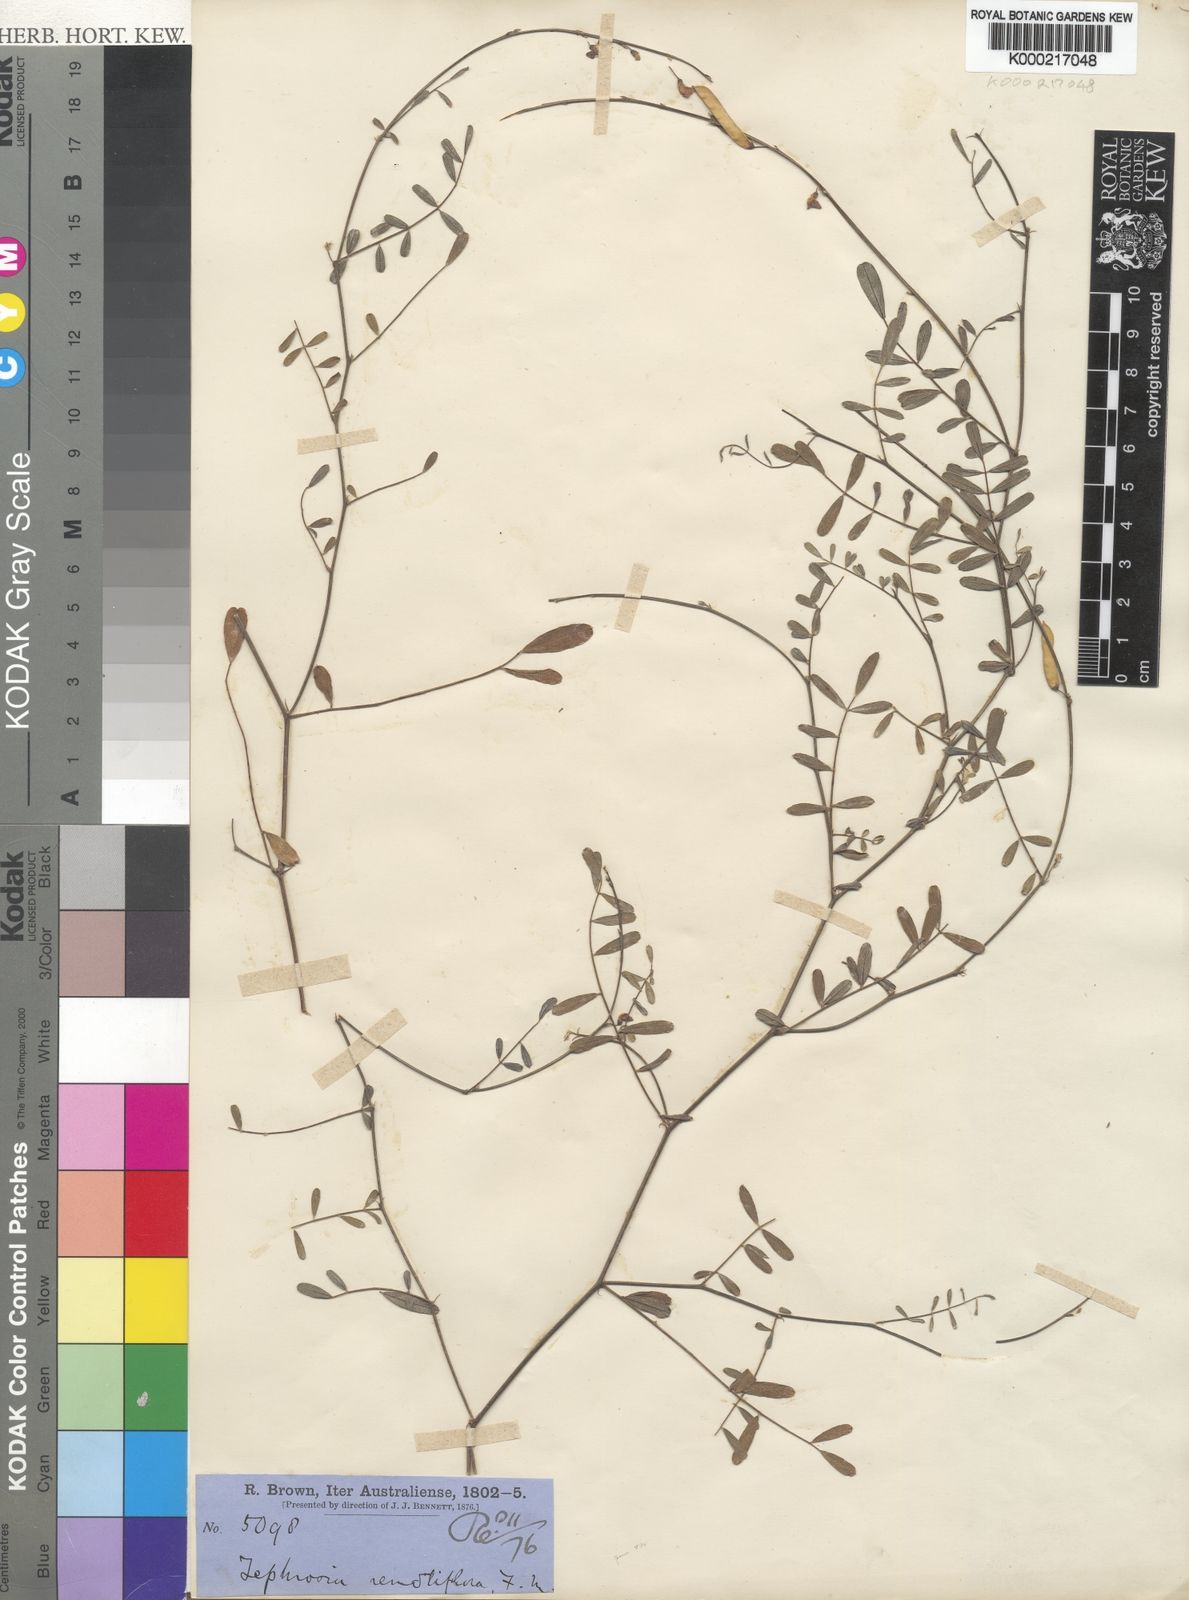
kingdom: Plantae
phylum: Tracheophyta
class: Magnoliopsida
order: Fabales
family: Fabaceae
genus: Tephrosia
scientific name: Tephrosia remotiflora
